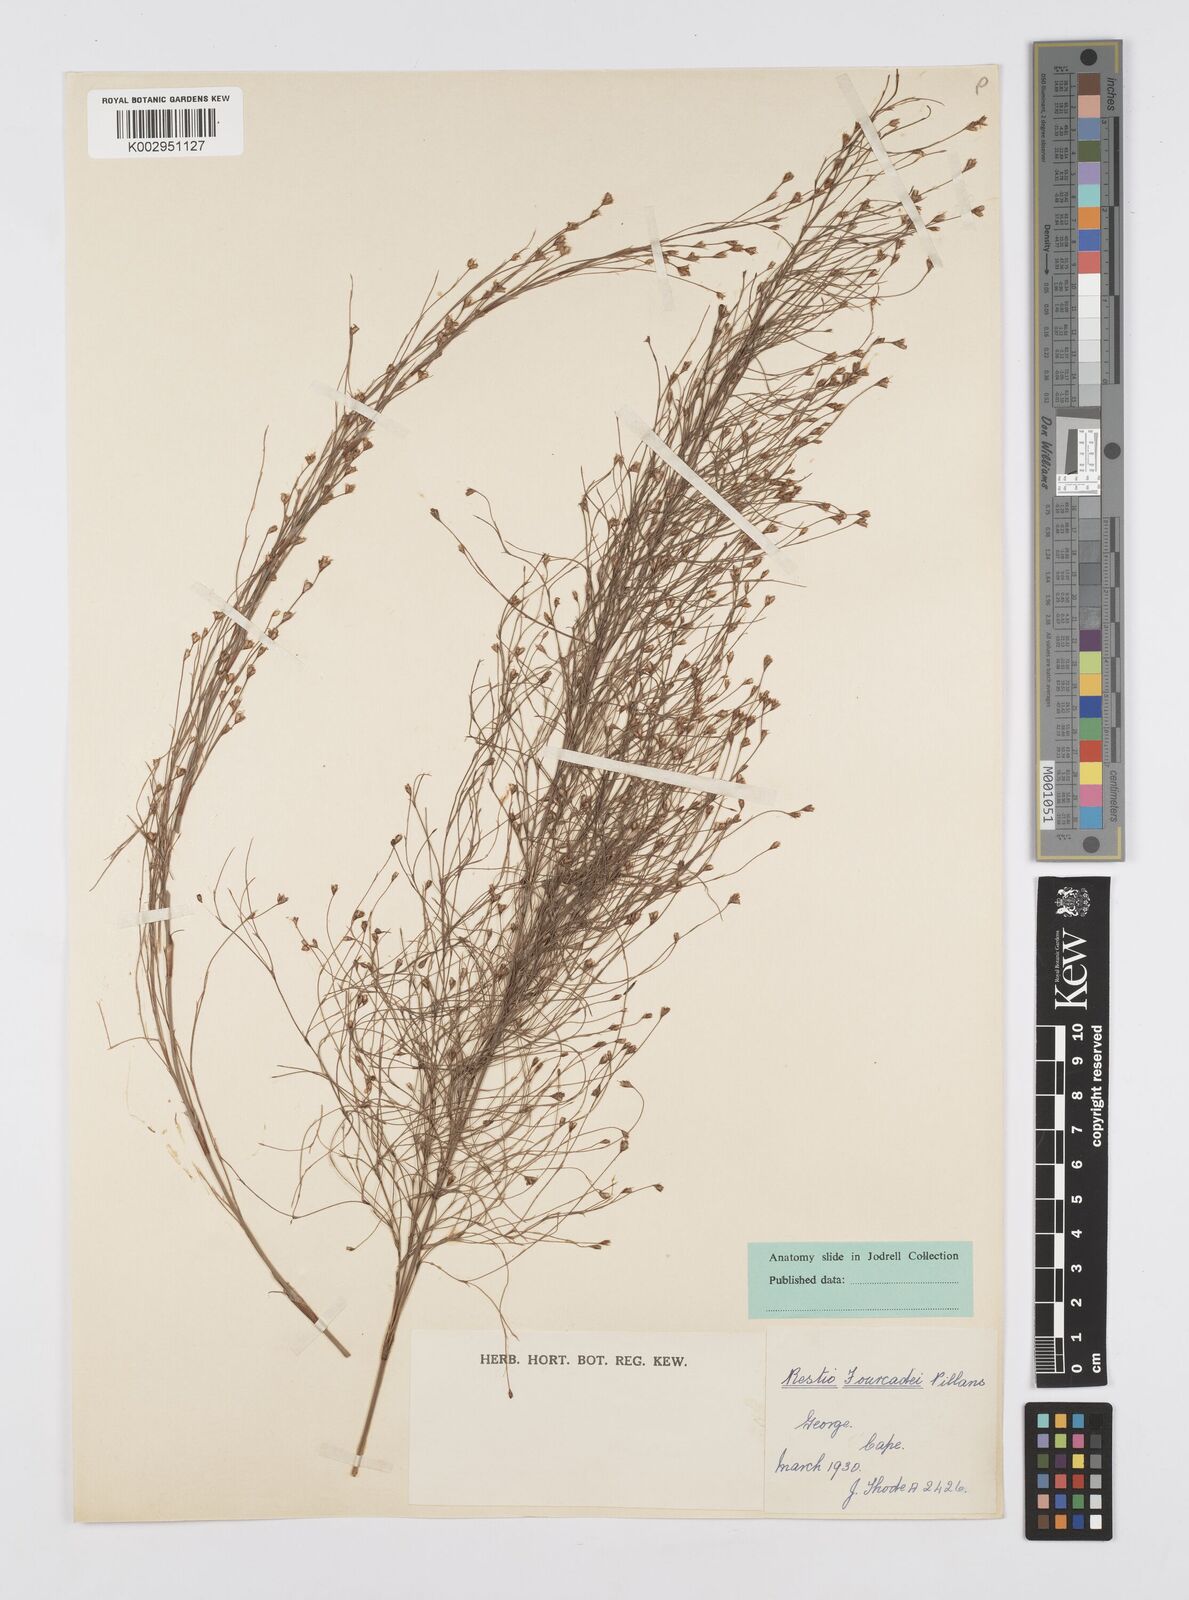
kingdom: Plantae
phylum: Tracheophyta
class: Liliopsida
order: Poales
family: Restionaceae
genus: Restio
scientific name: Restio fourcadei
